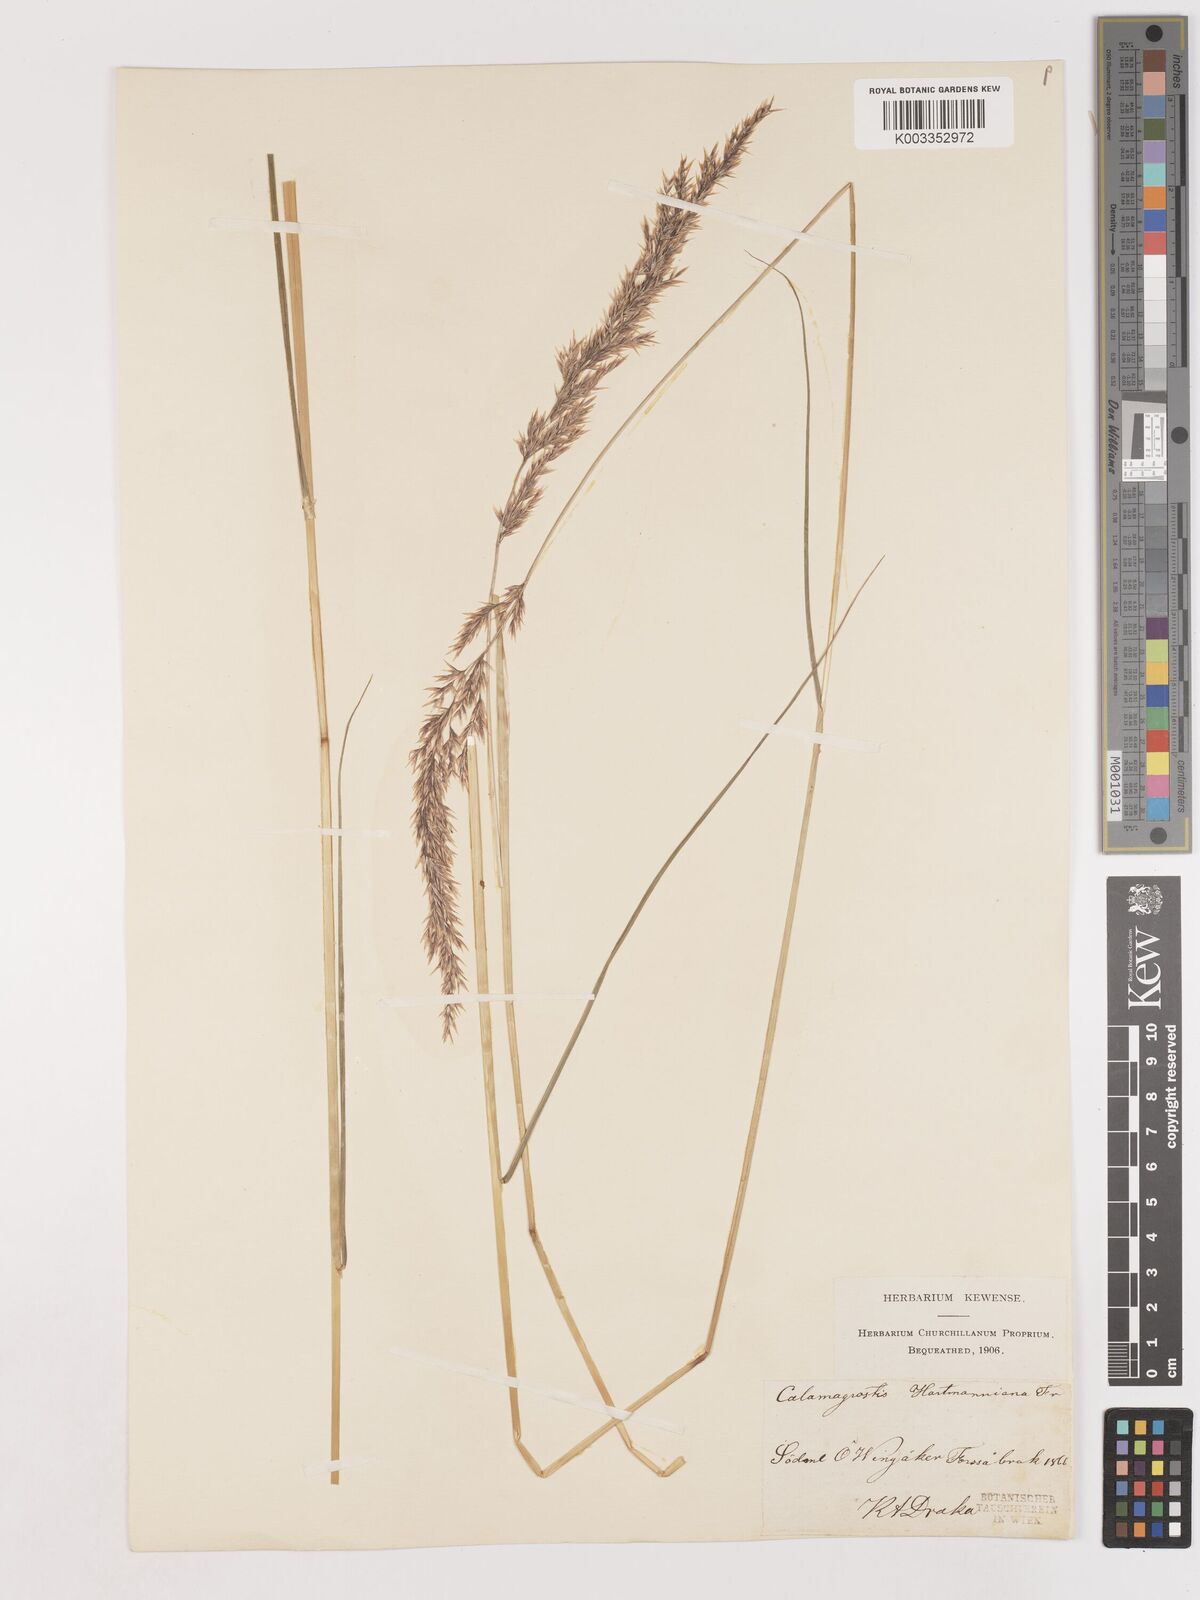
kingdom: Plantae
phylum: Tracheophyta
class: Liliopsida
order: Poales
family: Poaceae
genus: Calamagrostis
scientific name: Calamagrostis canescens
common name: Purple small-reed
